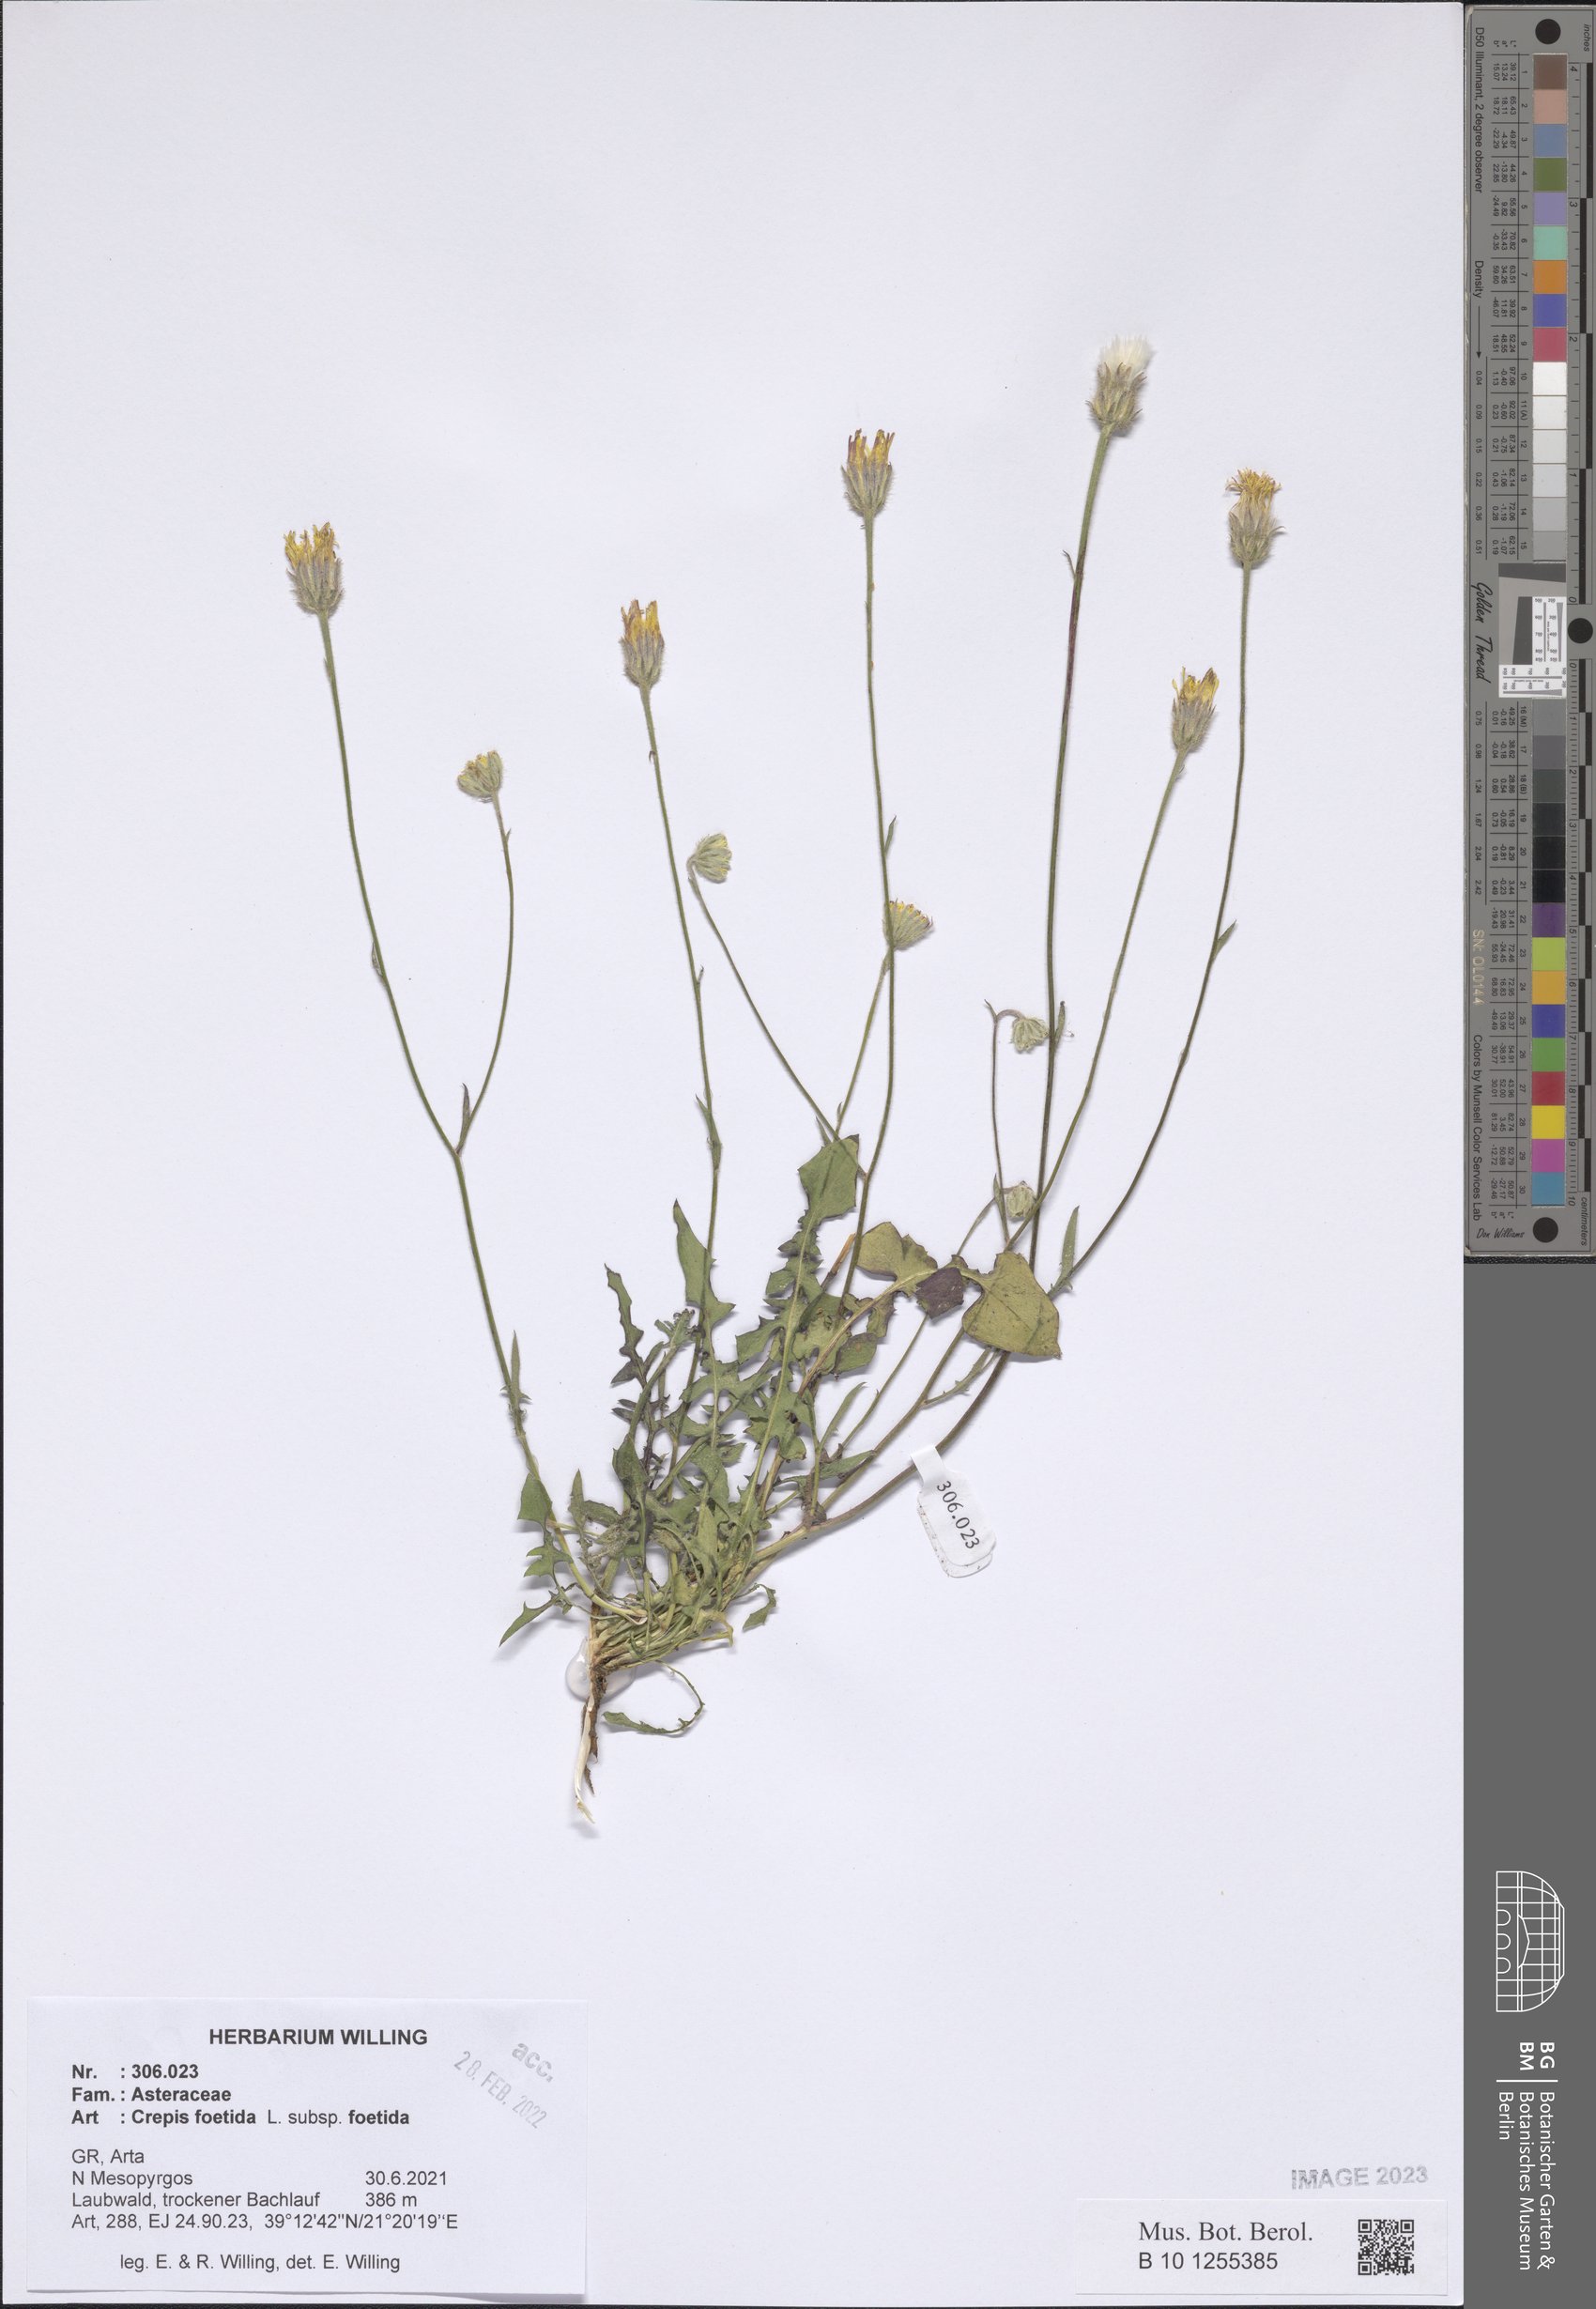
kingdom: Plantae
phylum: Tracheophyta
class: Magnoliopsida
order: Asterales
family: Asteraceae
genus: Crepis
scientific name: Crepis foetida
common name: Stinking hawk's-beard
